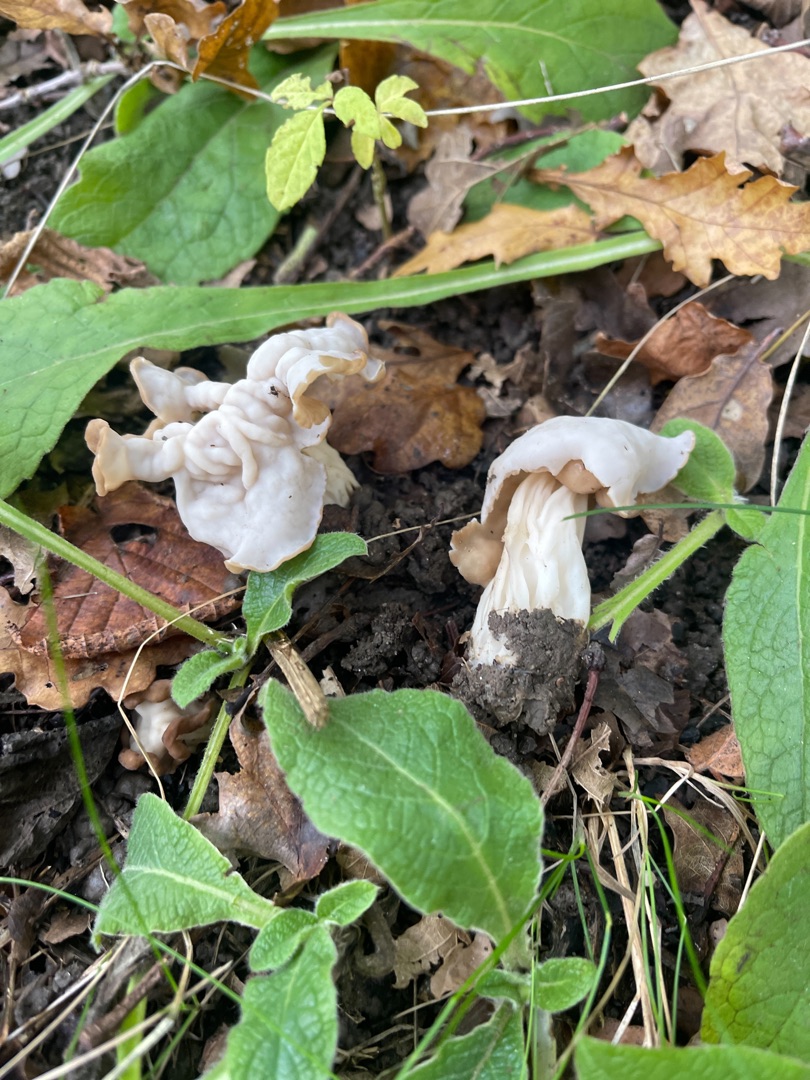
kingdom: Fungi
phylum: Ascomycota
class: Pezizomycetes
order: Pezizales
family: Helvellaceae
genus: Helvella
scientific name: Helvella crispa
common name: Kruset foldhat
